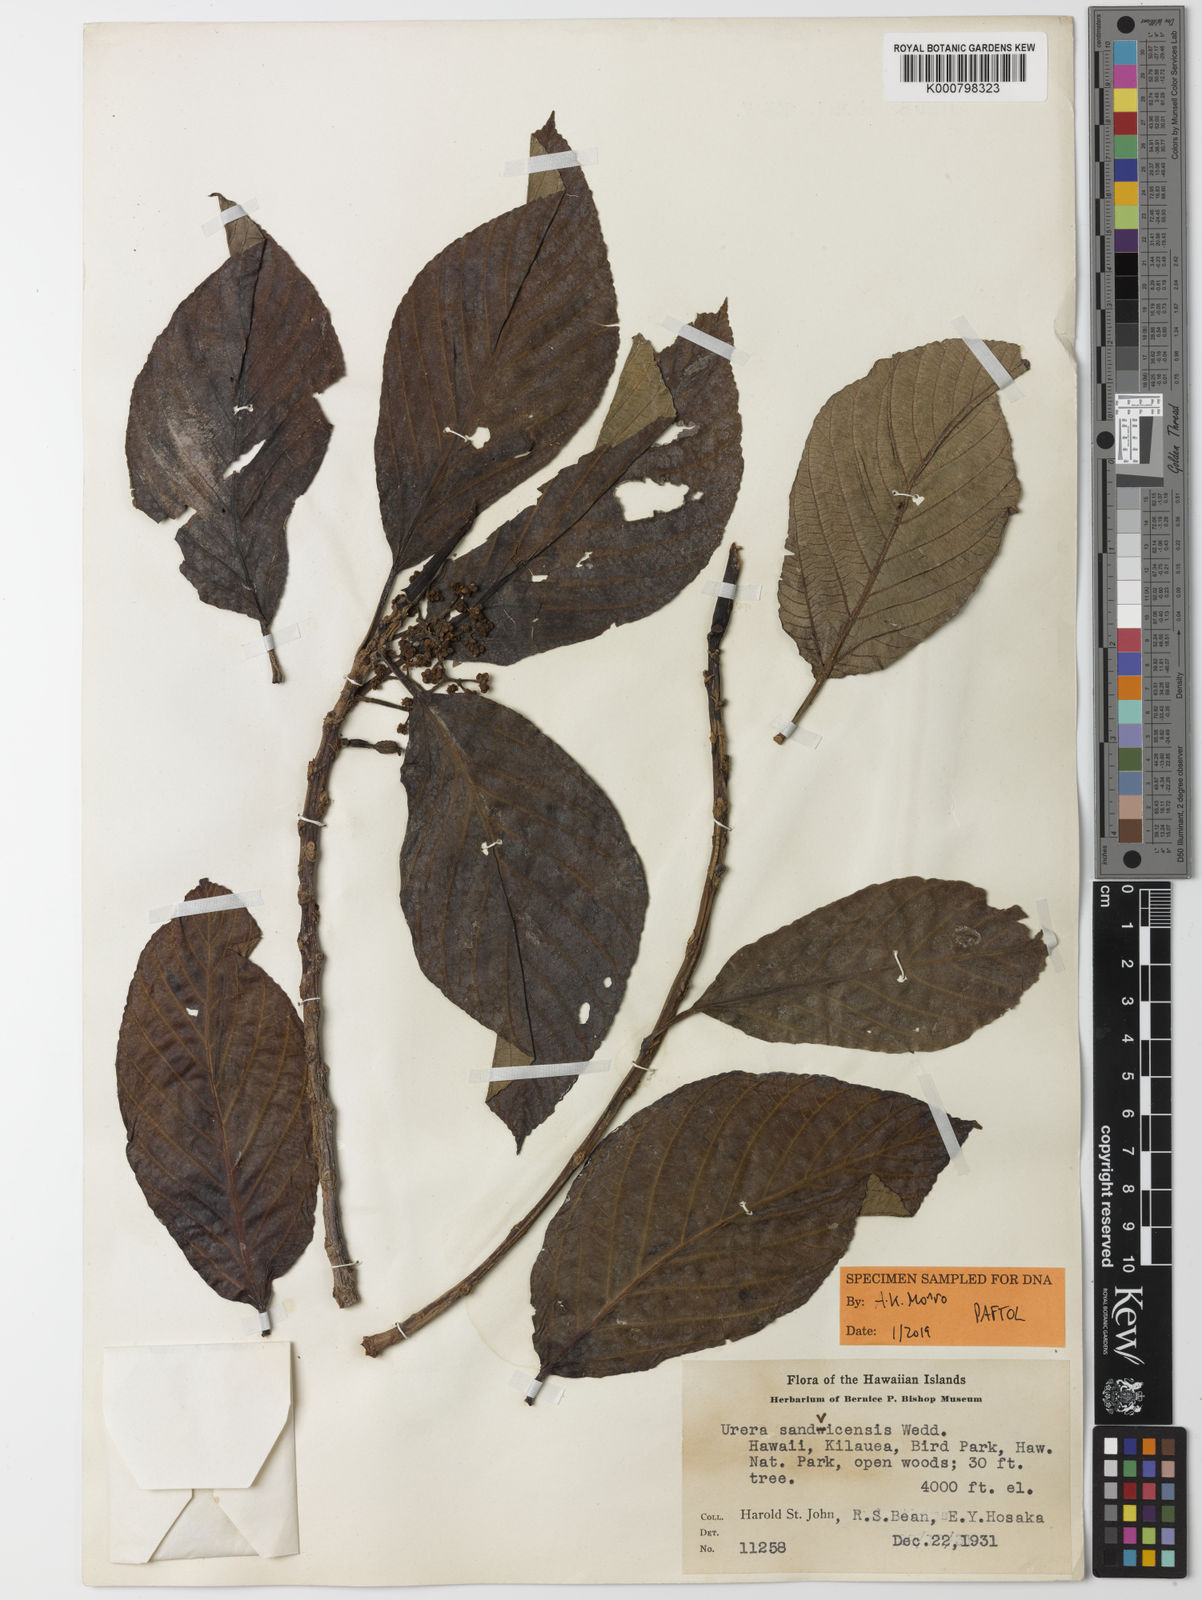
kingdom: Plantae
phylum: Tracheophyta
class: Magnoliopsida
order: Rosales
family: Urticaceae
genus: Urera
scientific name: Urera
